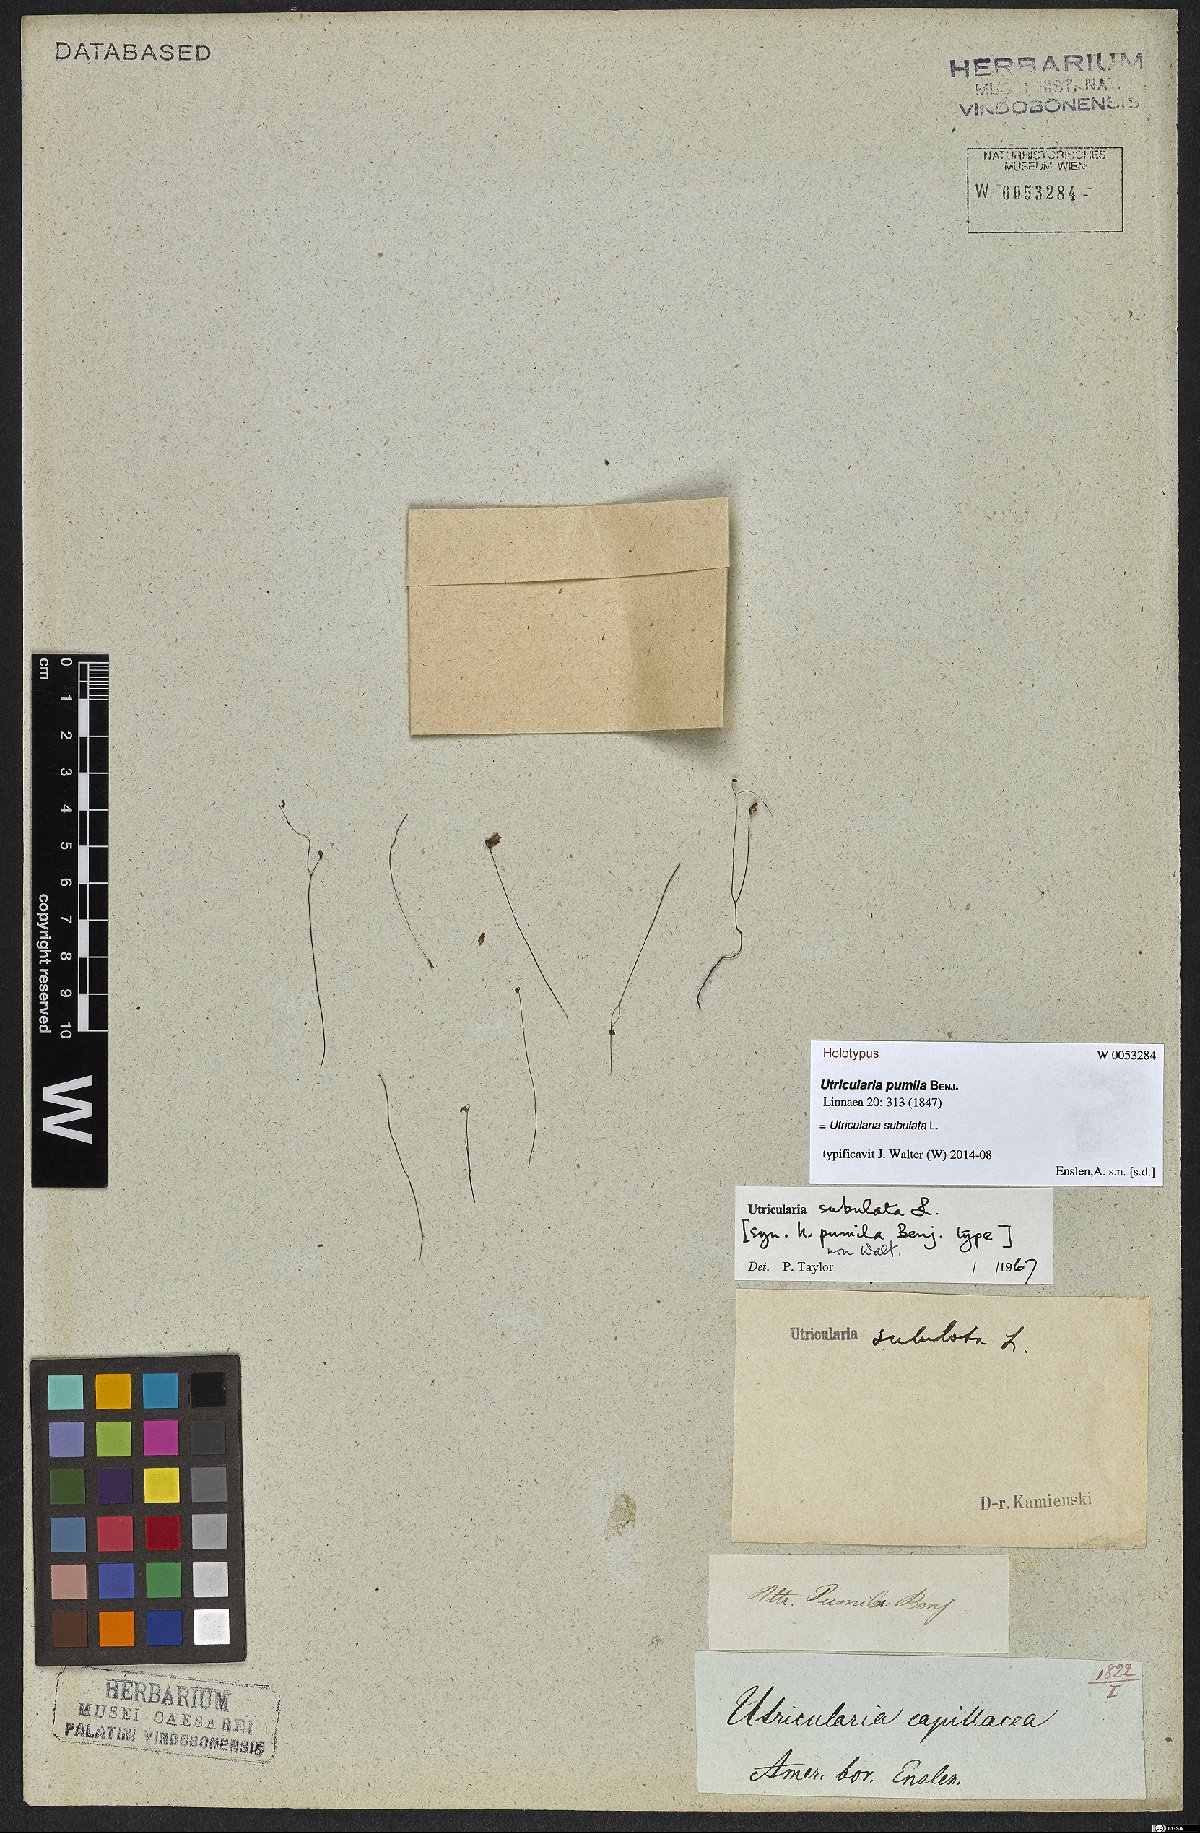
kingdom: Plantae
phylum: Tracheophyta
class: Magnoliopsida
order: Lamiales
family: Lentibulariaceae
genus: Utricularia
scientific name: Utricularia subulata
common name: Tiny bladderwort
